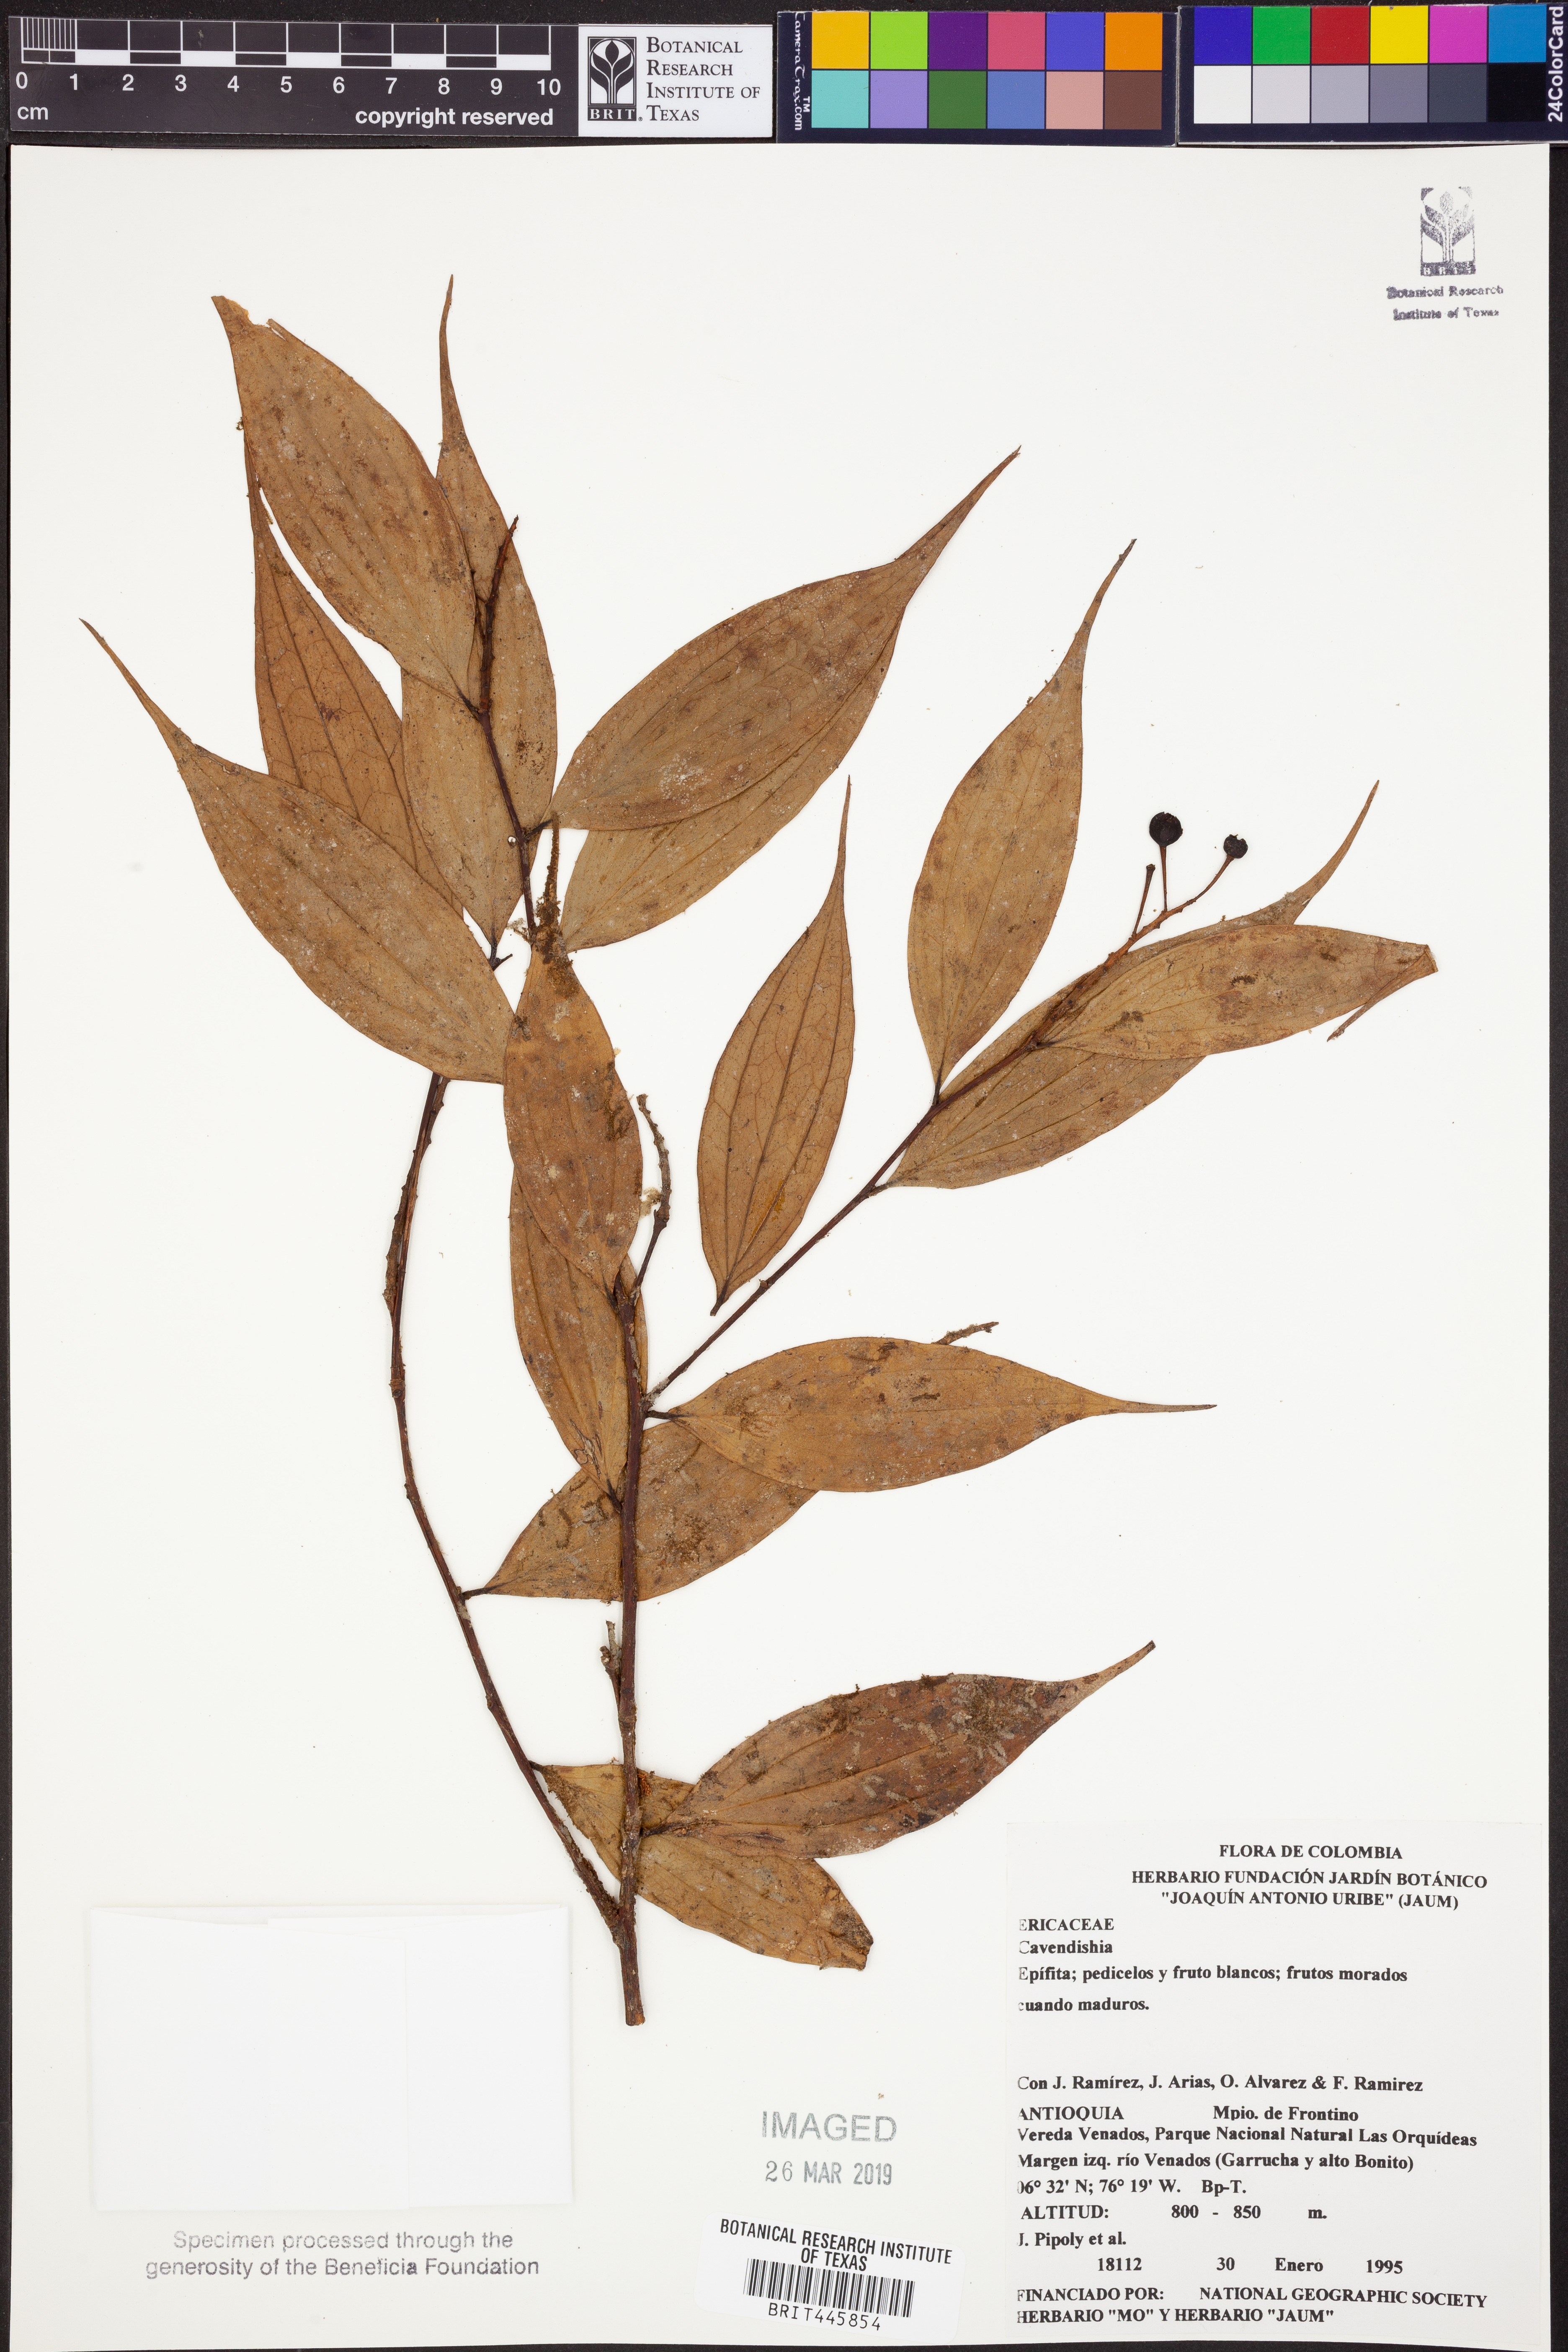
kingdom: Plantae
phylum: Tracheophyta
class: Magnoliopsida
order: Ericales
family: Ericaceae
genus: Cavendishia
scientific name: Cavendishia
